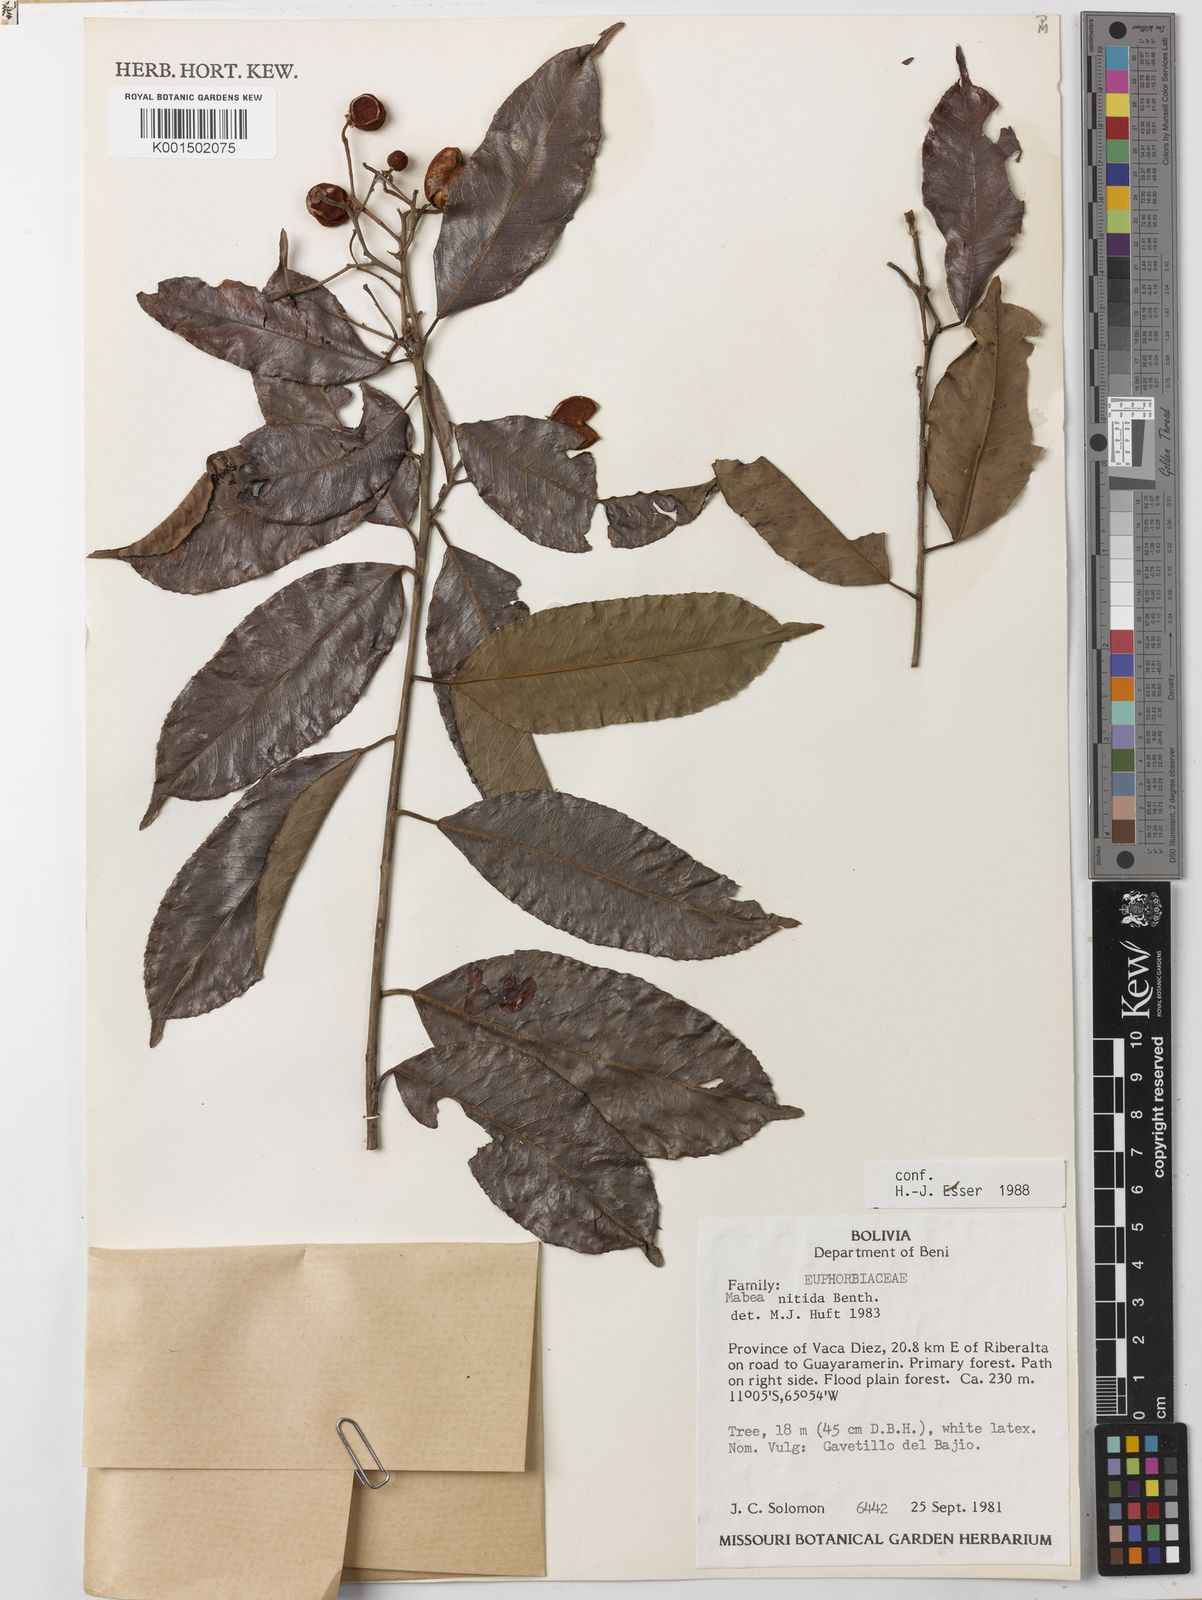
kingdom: Plantae
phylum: Tracheophyta
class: Magnoliopsida
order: Malpighiales
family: Euphorbiaceae
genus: Mabea
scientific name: Mabea nitida
